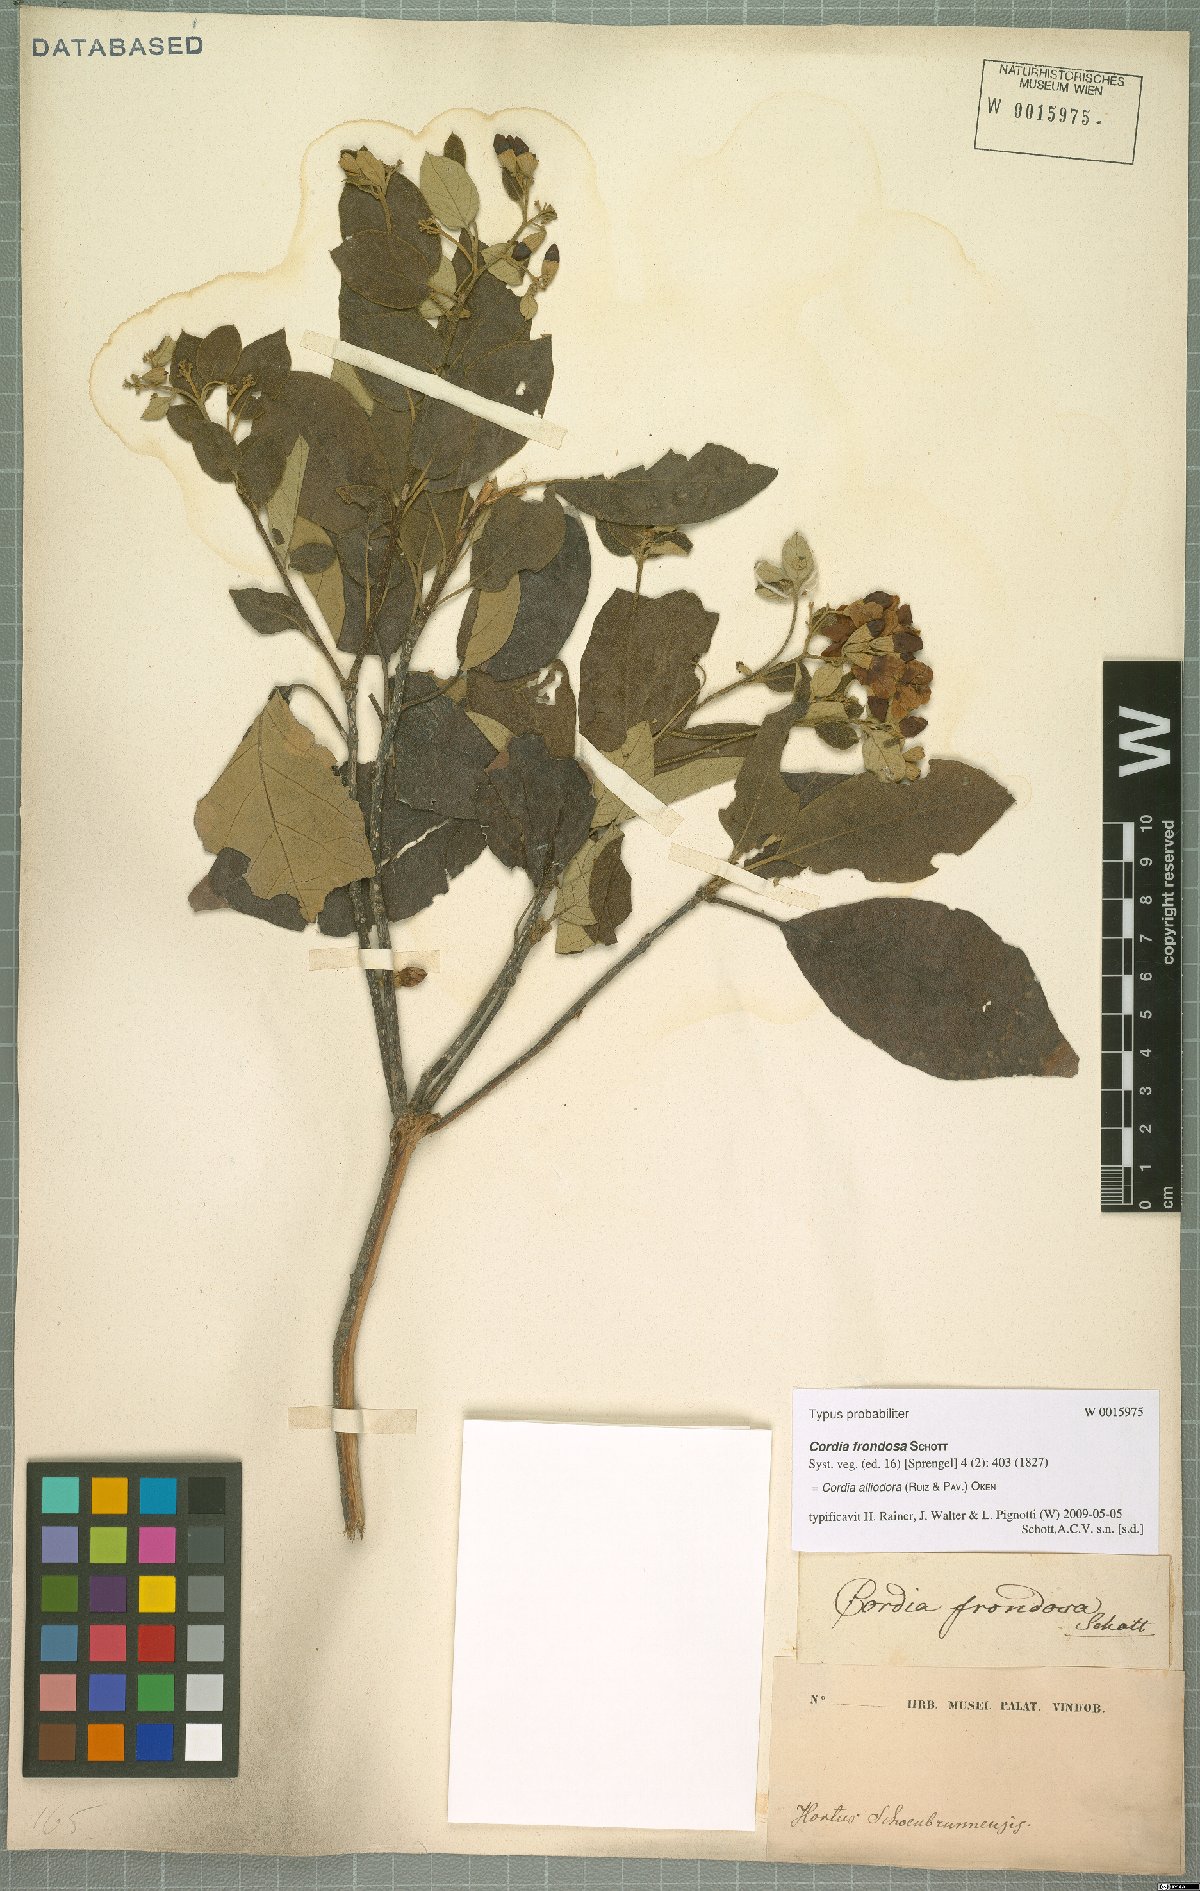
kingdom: Plantae
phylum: Tracheophyta
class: Magnoliopsida
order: Boraginales
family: Cordiaceae
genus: Cordia
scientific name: Cordia alliodora
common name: Spanish elm
